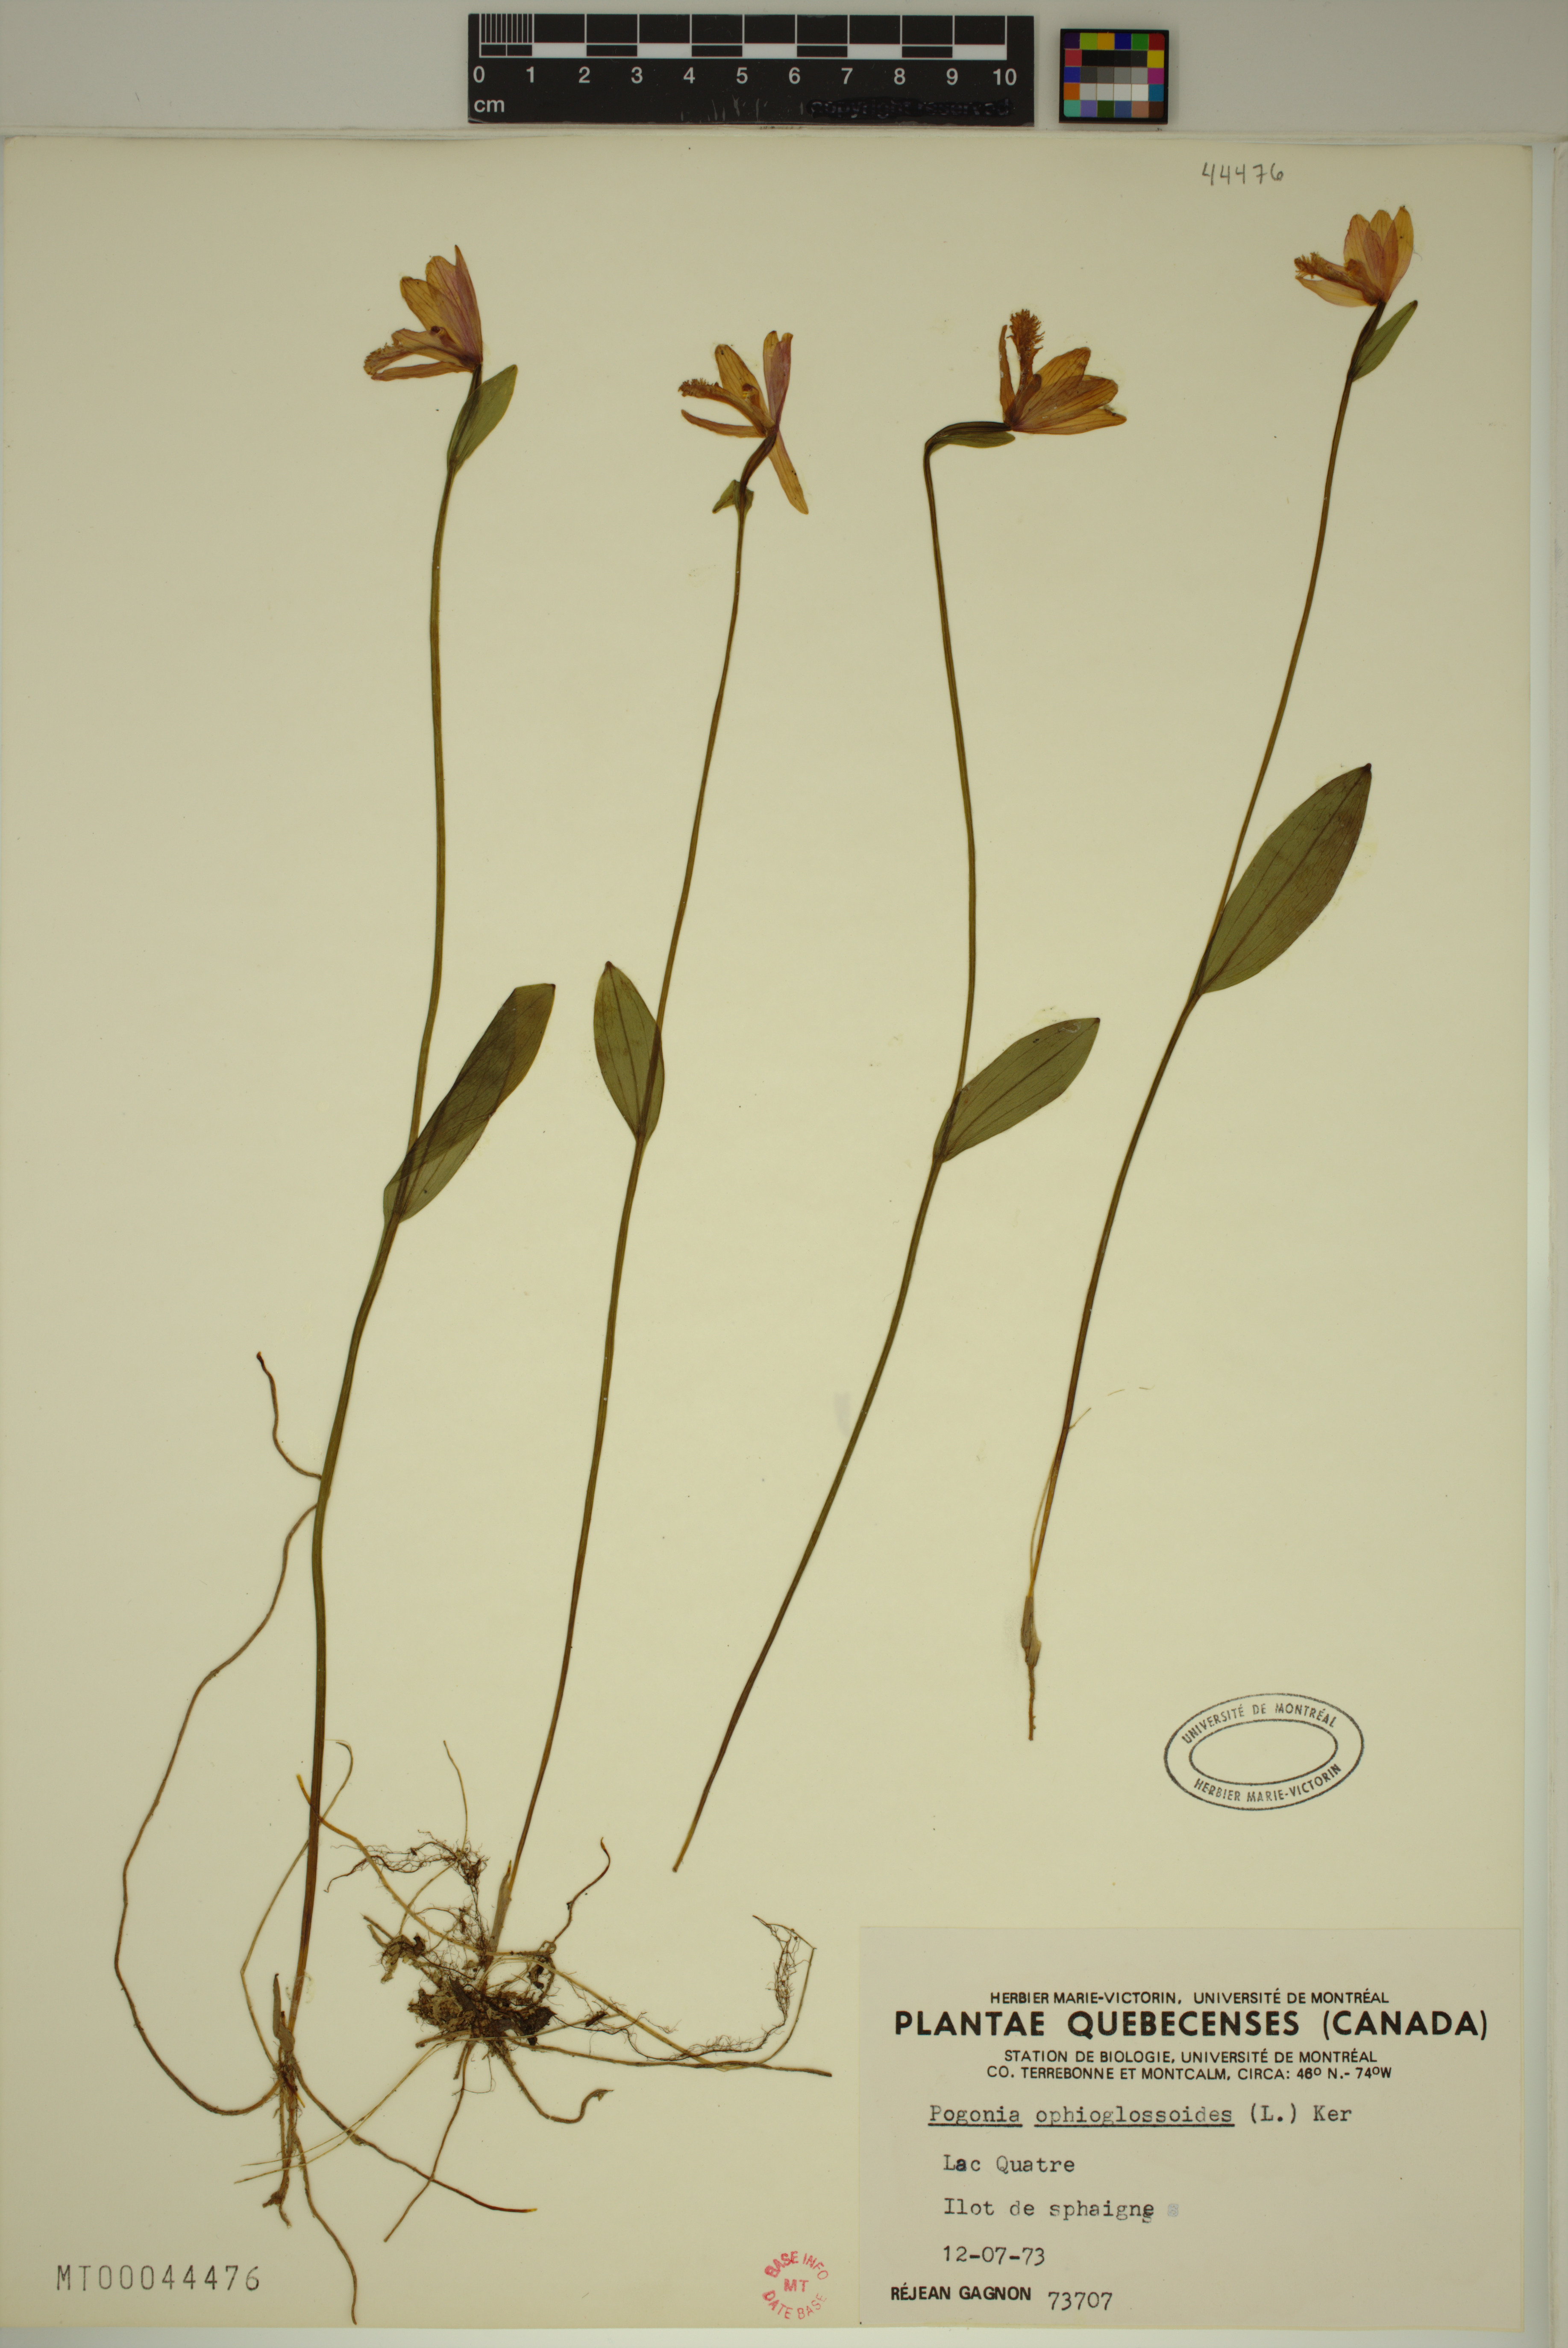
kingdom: Plantae
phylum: Tracheophyta
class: Liliopsida
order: Asparagales
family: Orchidaceae
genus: Pogonia
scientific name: Pogonia ophioglossoides
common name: Rose pogonia
